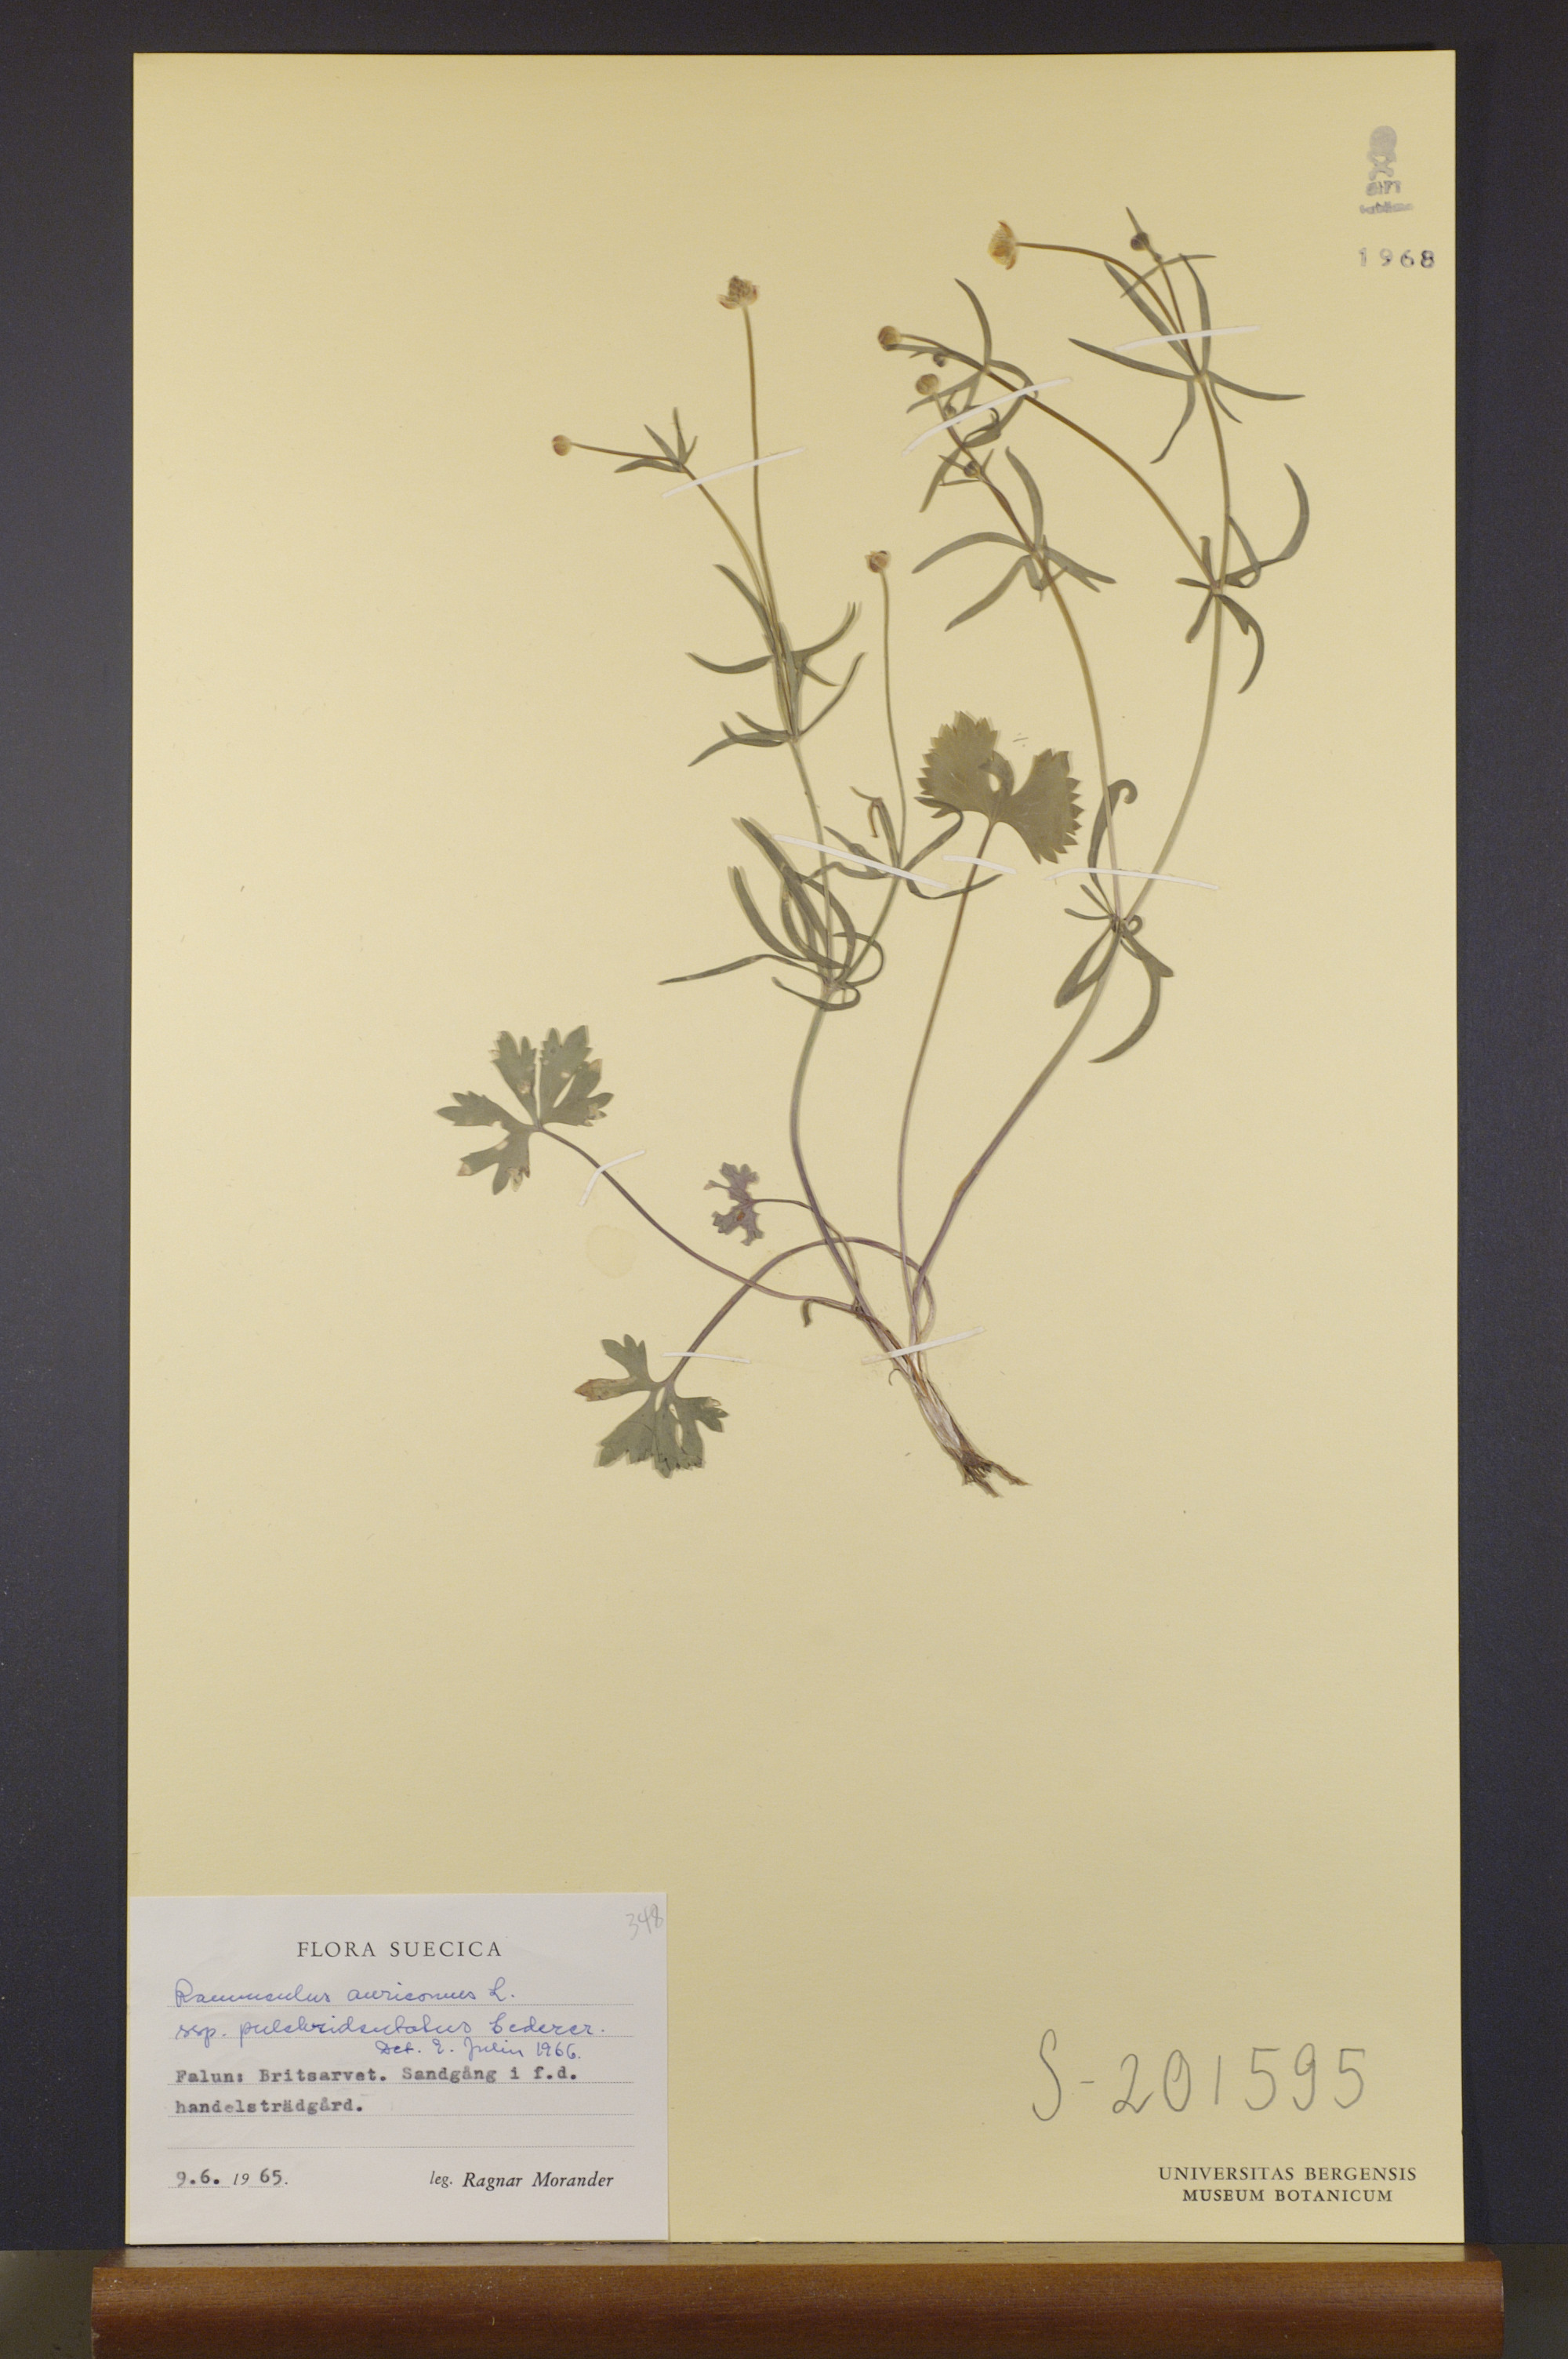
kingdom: Plantae
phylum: Tracheophyta
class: Magnoliopsida
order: Ranunculales
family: Ranunculaceae
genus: Ranunculus
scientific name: Ranunculus pulchridentatus
